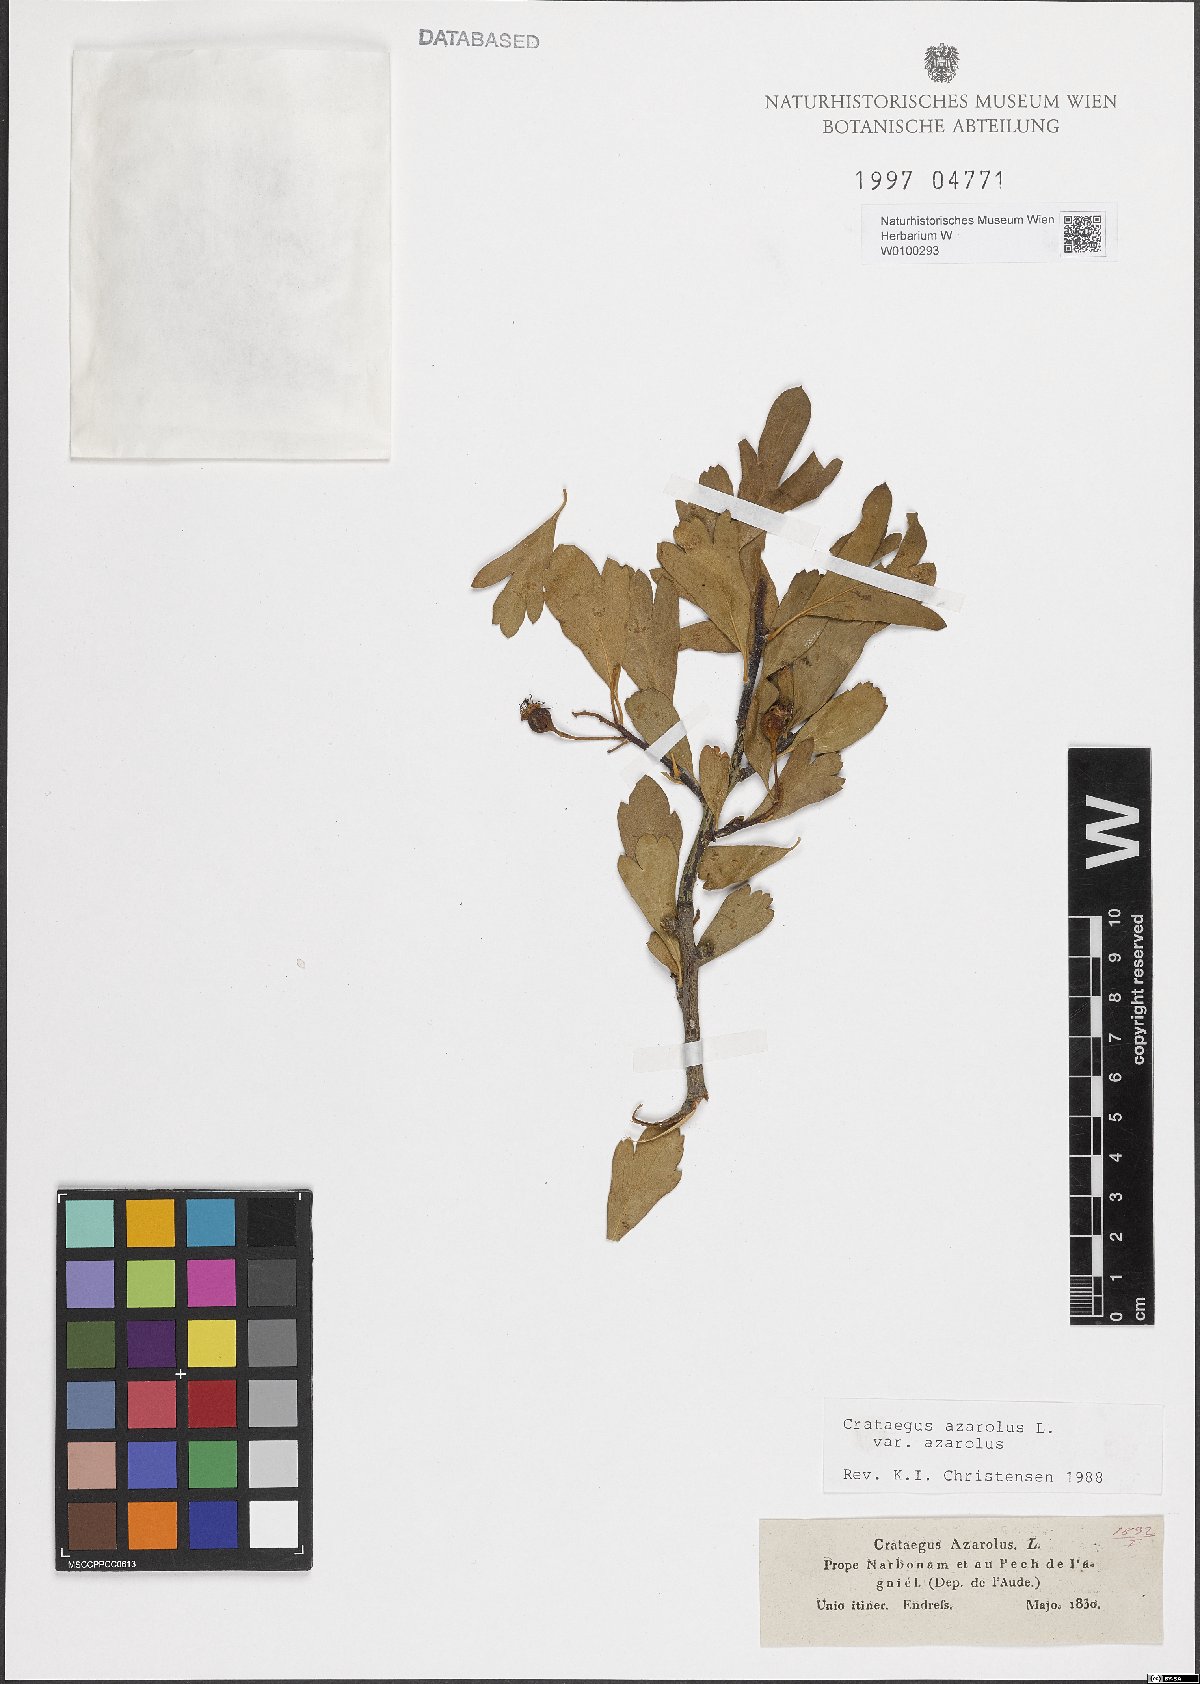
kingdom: Plantae
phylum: Tracheophyta
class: Magnoliopsida
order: Rosales
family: Rosaceae
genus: Crataegus
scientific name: Crataegus azarolus
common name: Azarole
